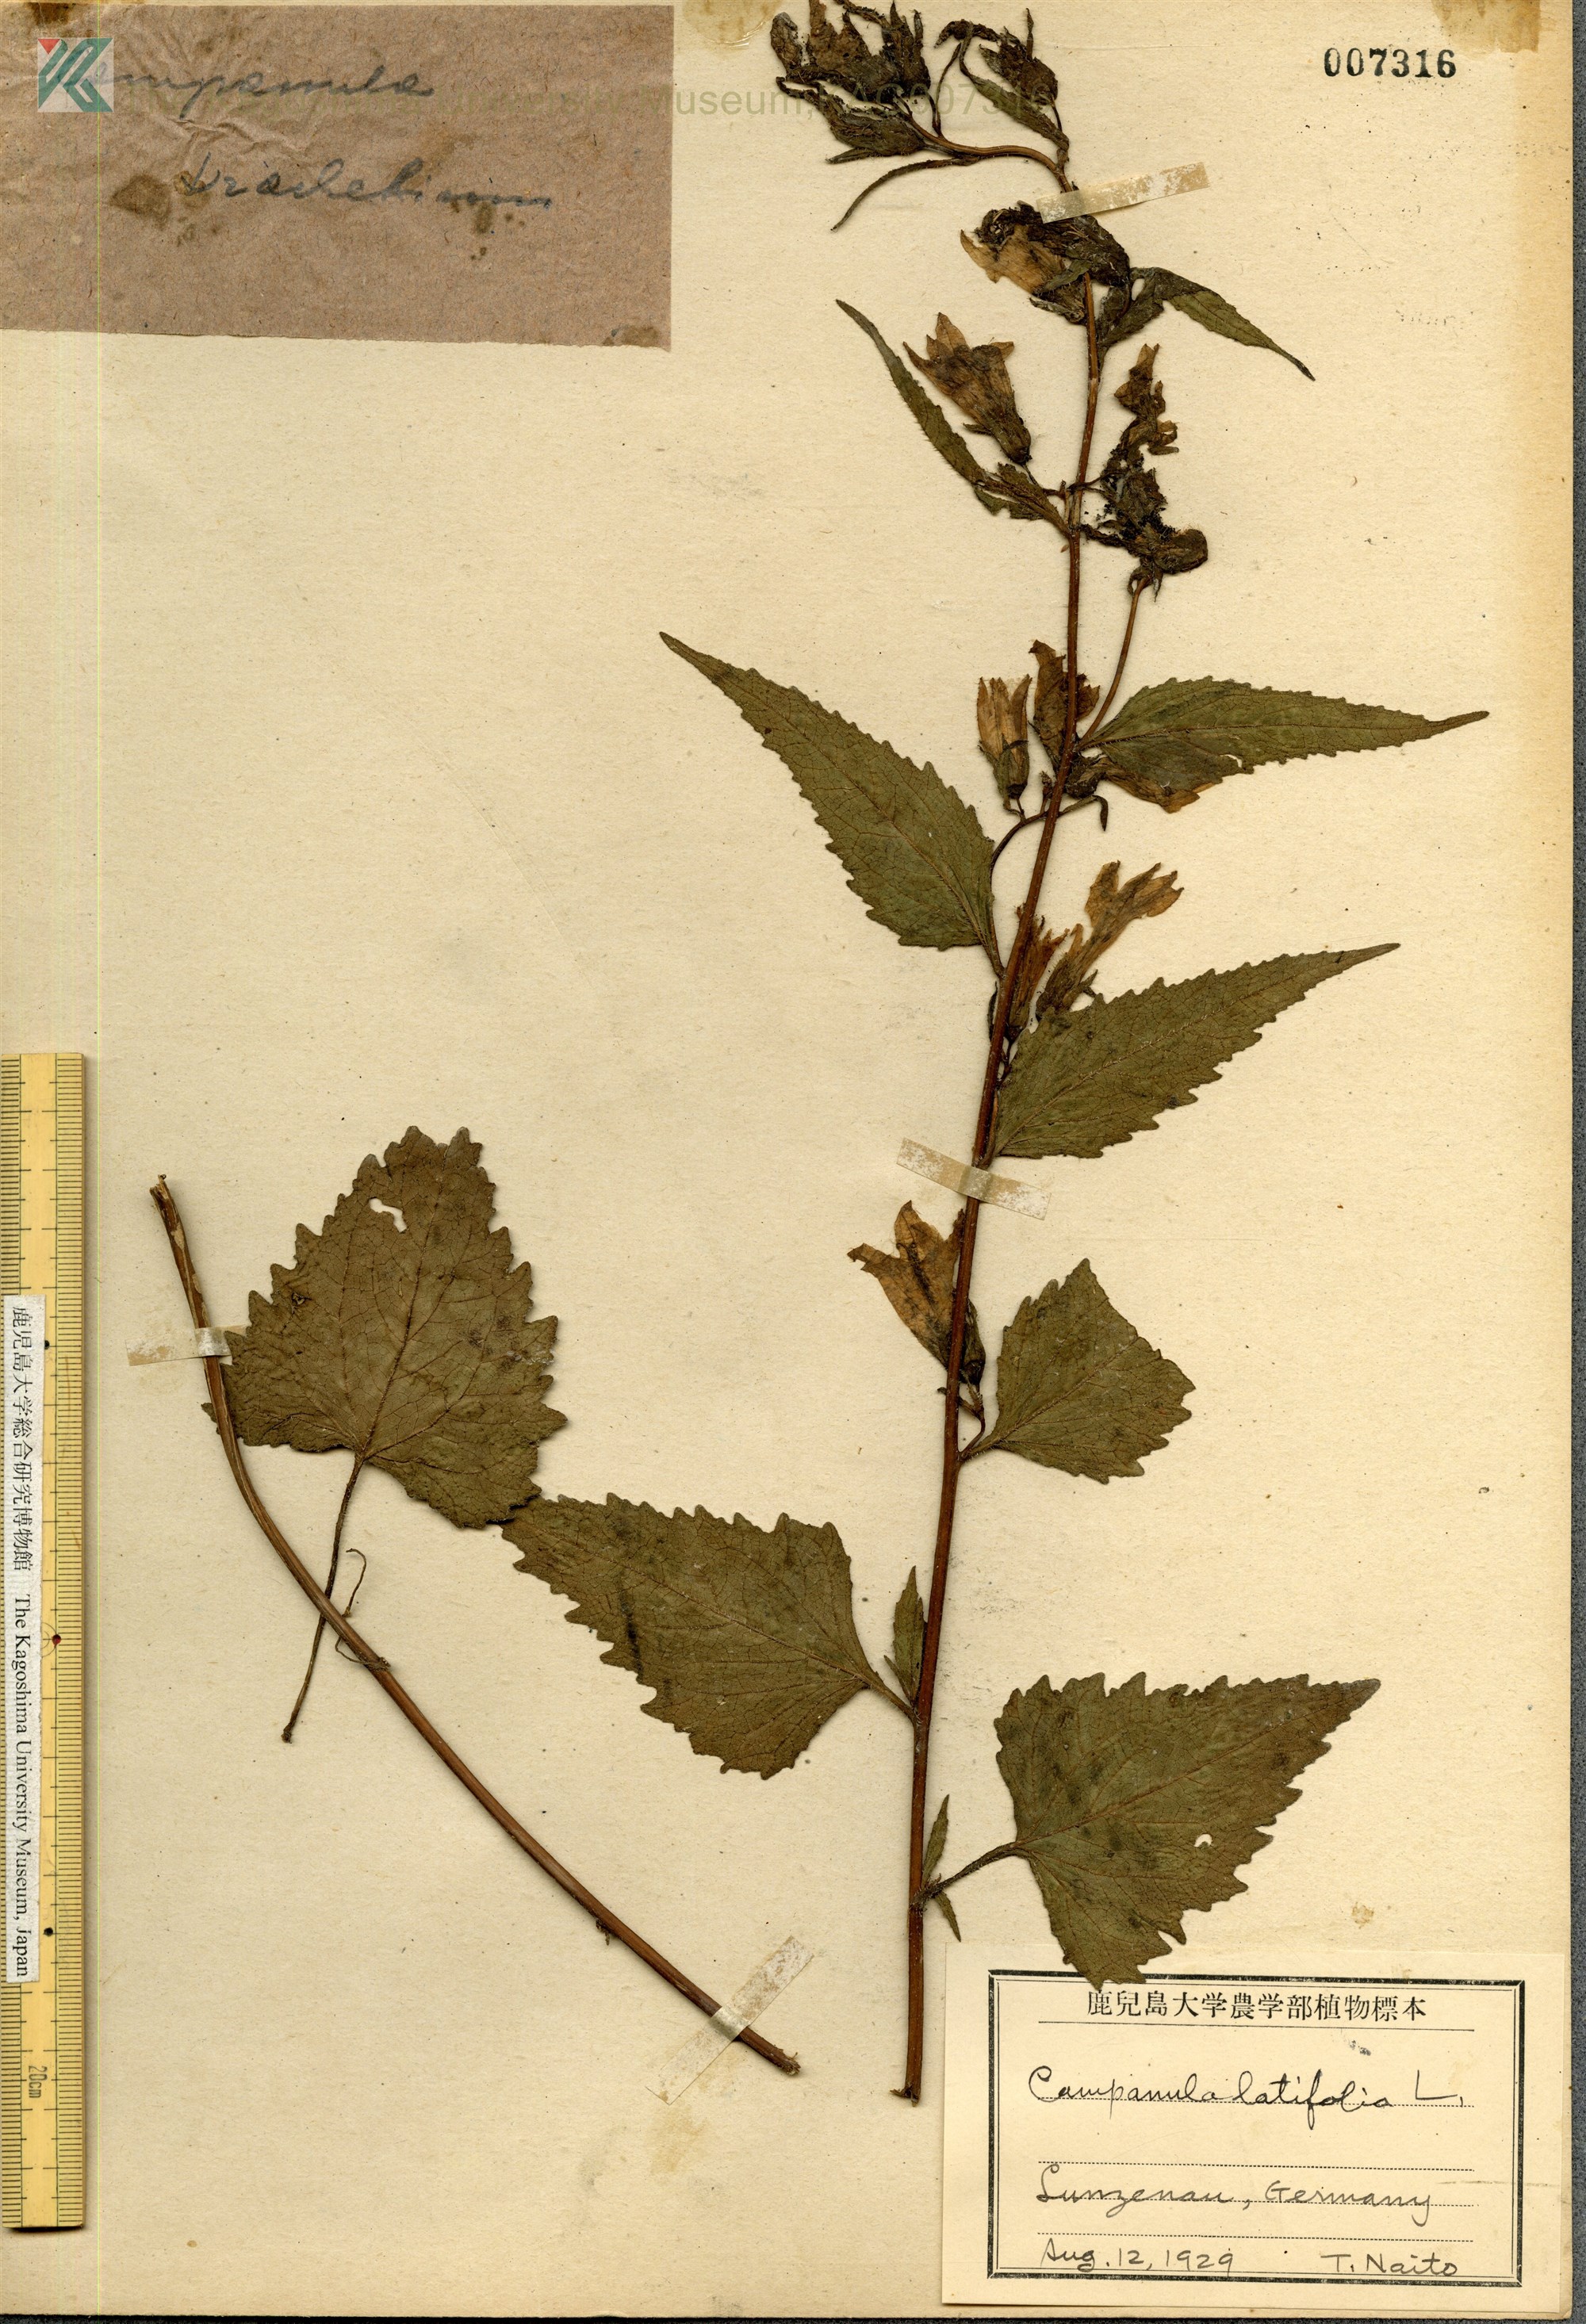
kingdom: Plantae
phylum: Tracheophyta
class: Magnoliopsida
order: Asterales
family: Campanulaceae
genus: Campanula
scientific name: Campanula latifolia
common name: Giant bellflower
